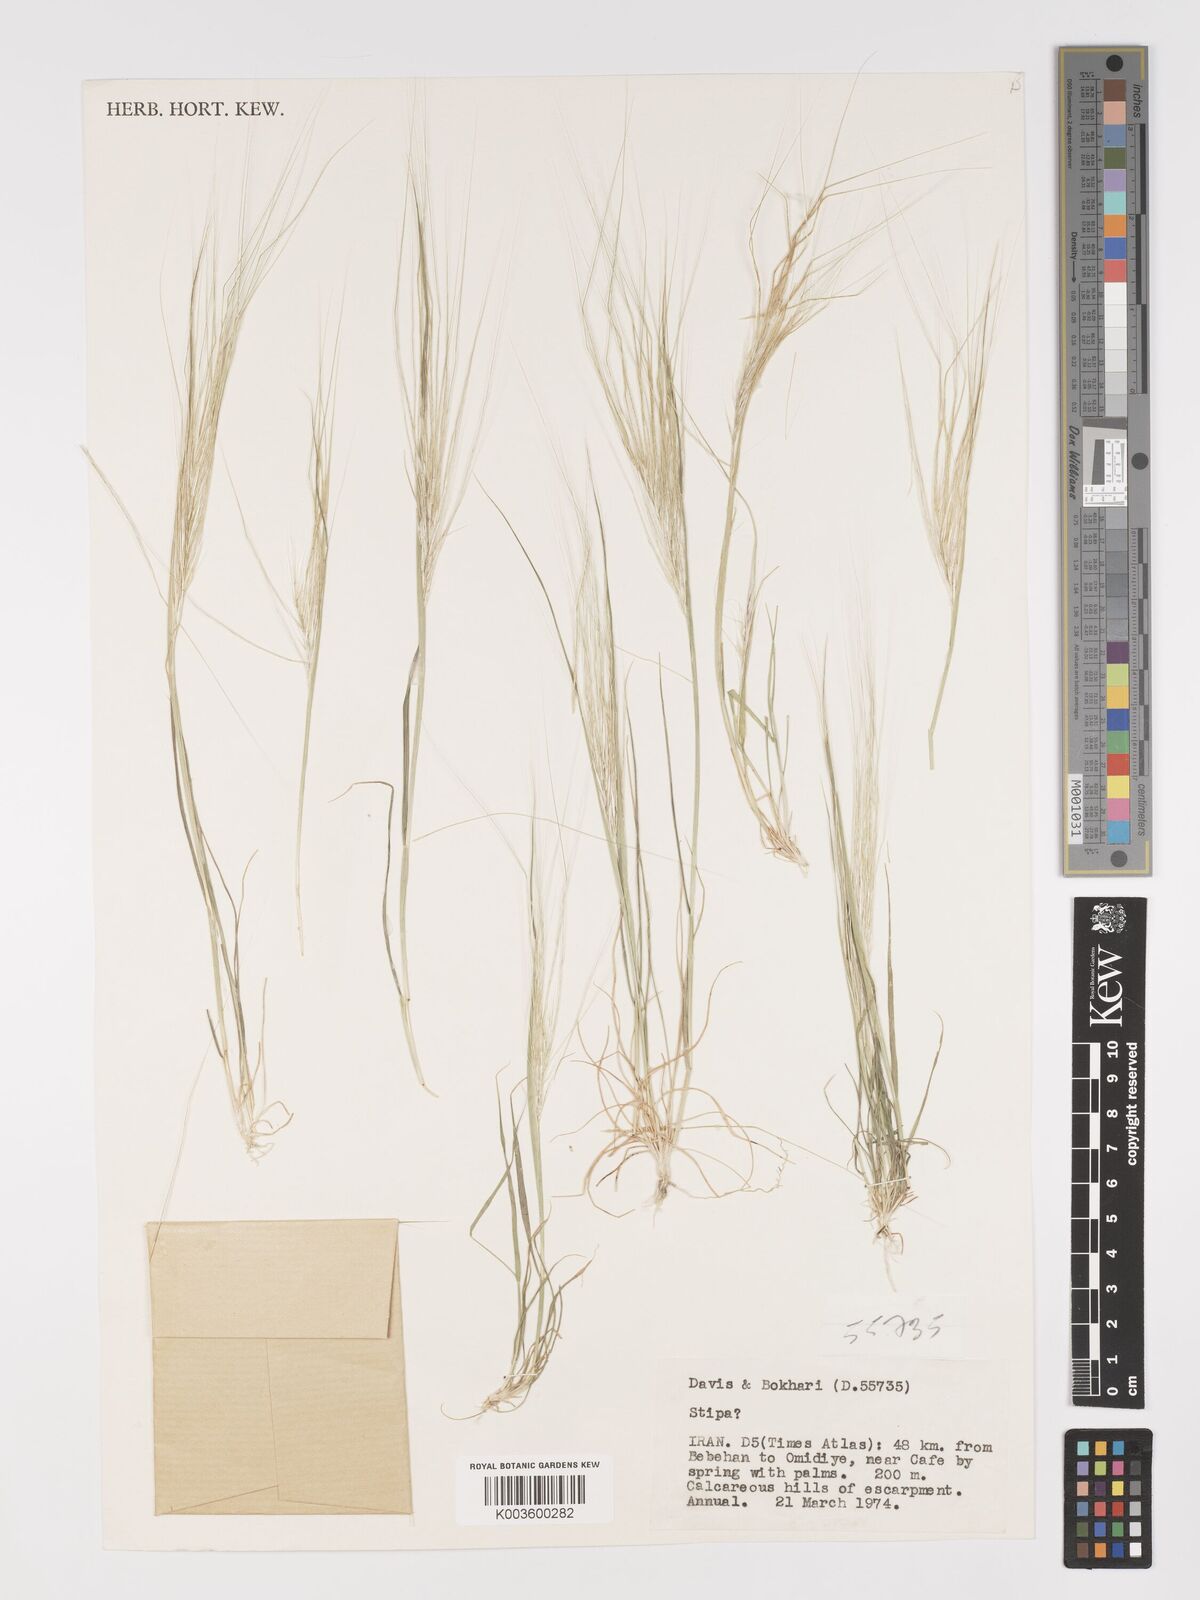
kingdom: Plantae
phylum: Tracheophyta
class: Liliopsida
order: Poales
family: Poaceae
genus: Stipellula
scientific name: Stipellula capensis
